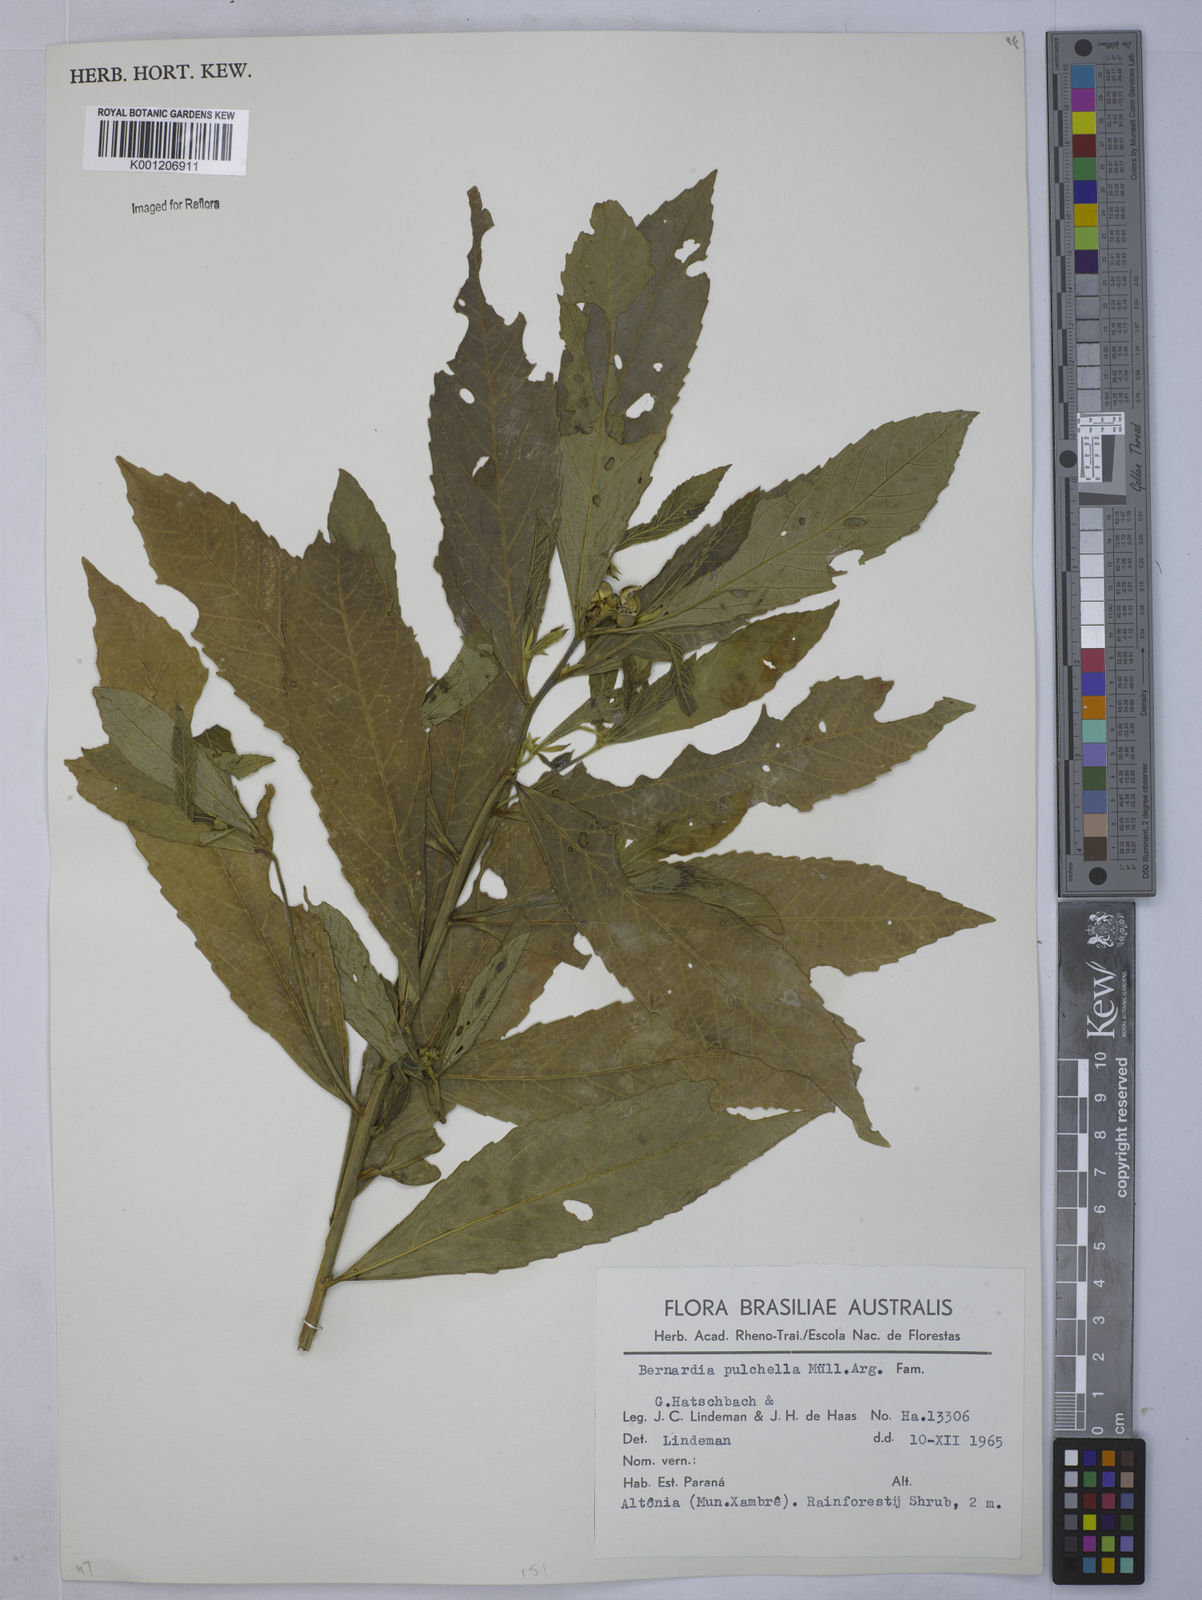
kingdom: Plantae
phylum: Tracheophyta
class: Magnoliopsida
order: Malpighiales
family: Euphorbiaceae
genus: Bernardia
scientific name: Bernardia
